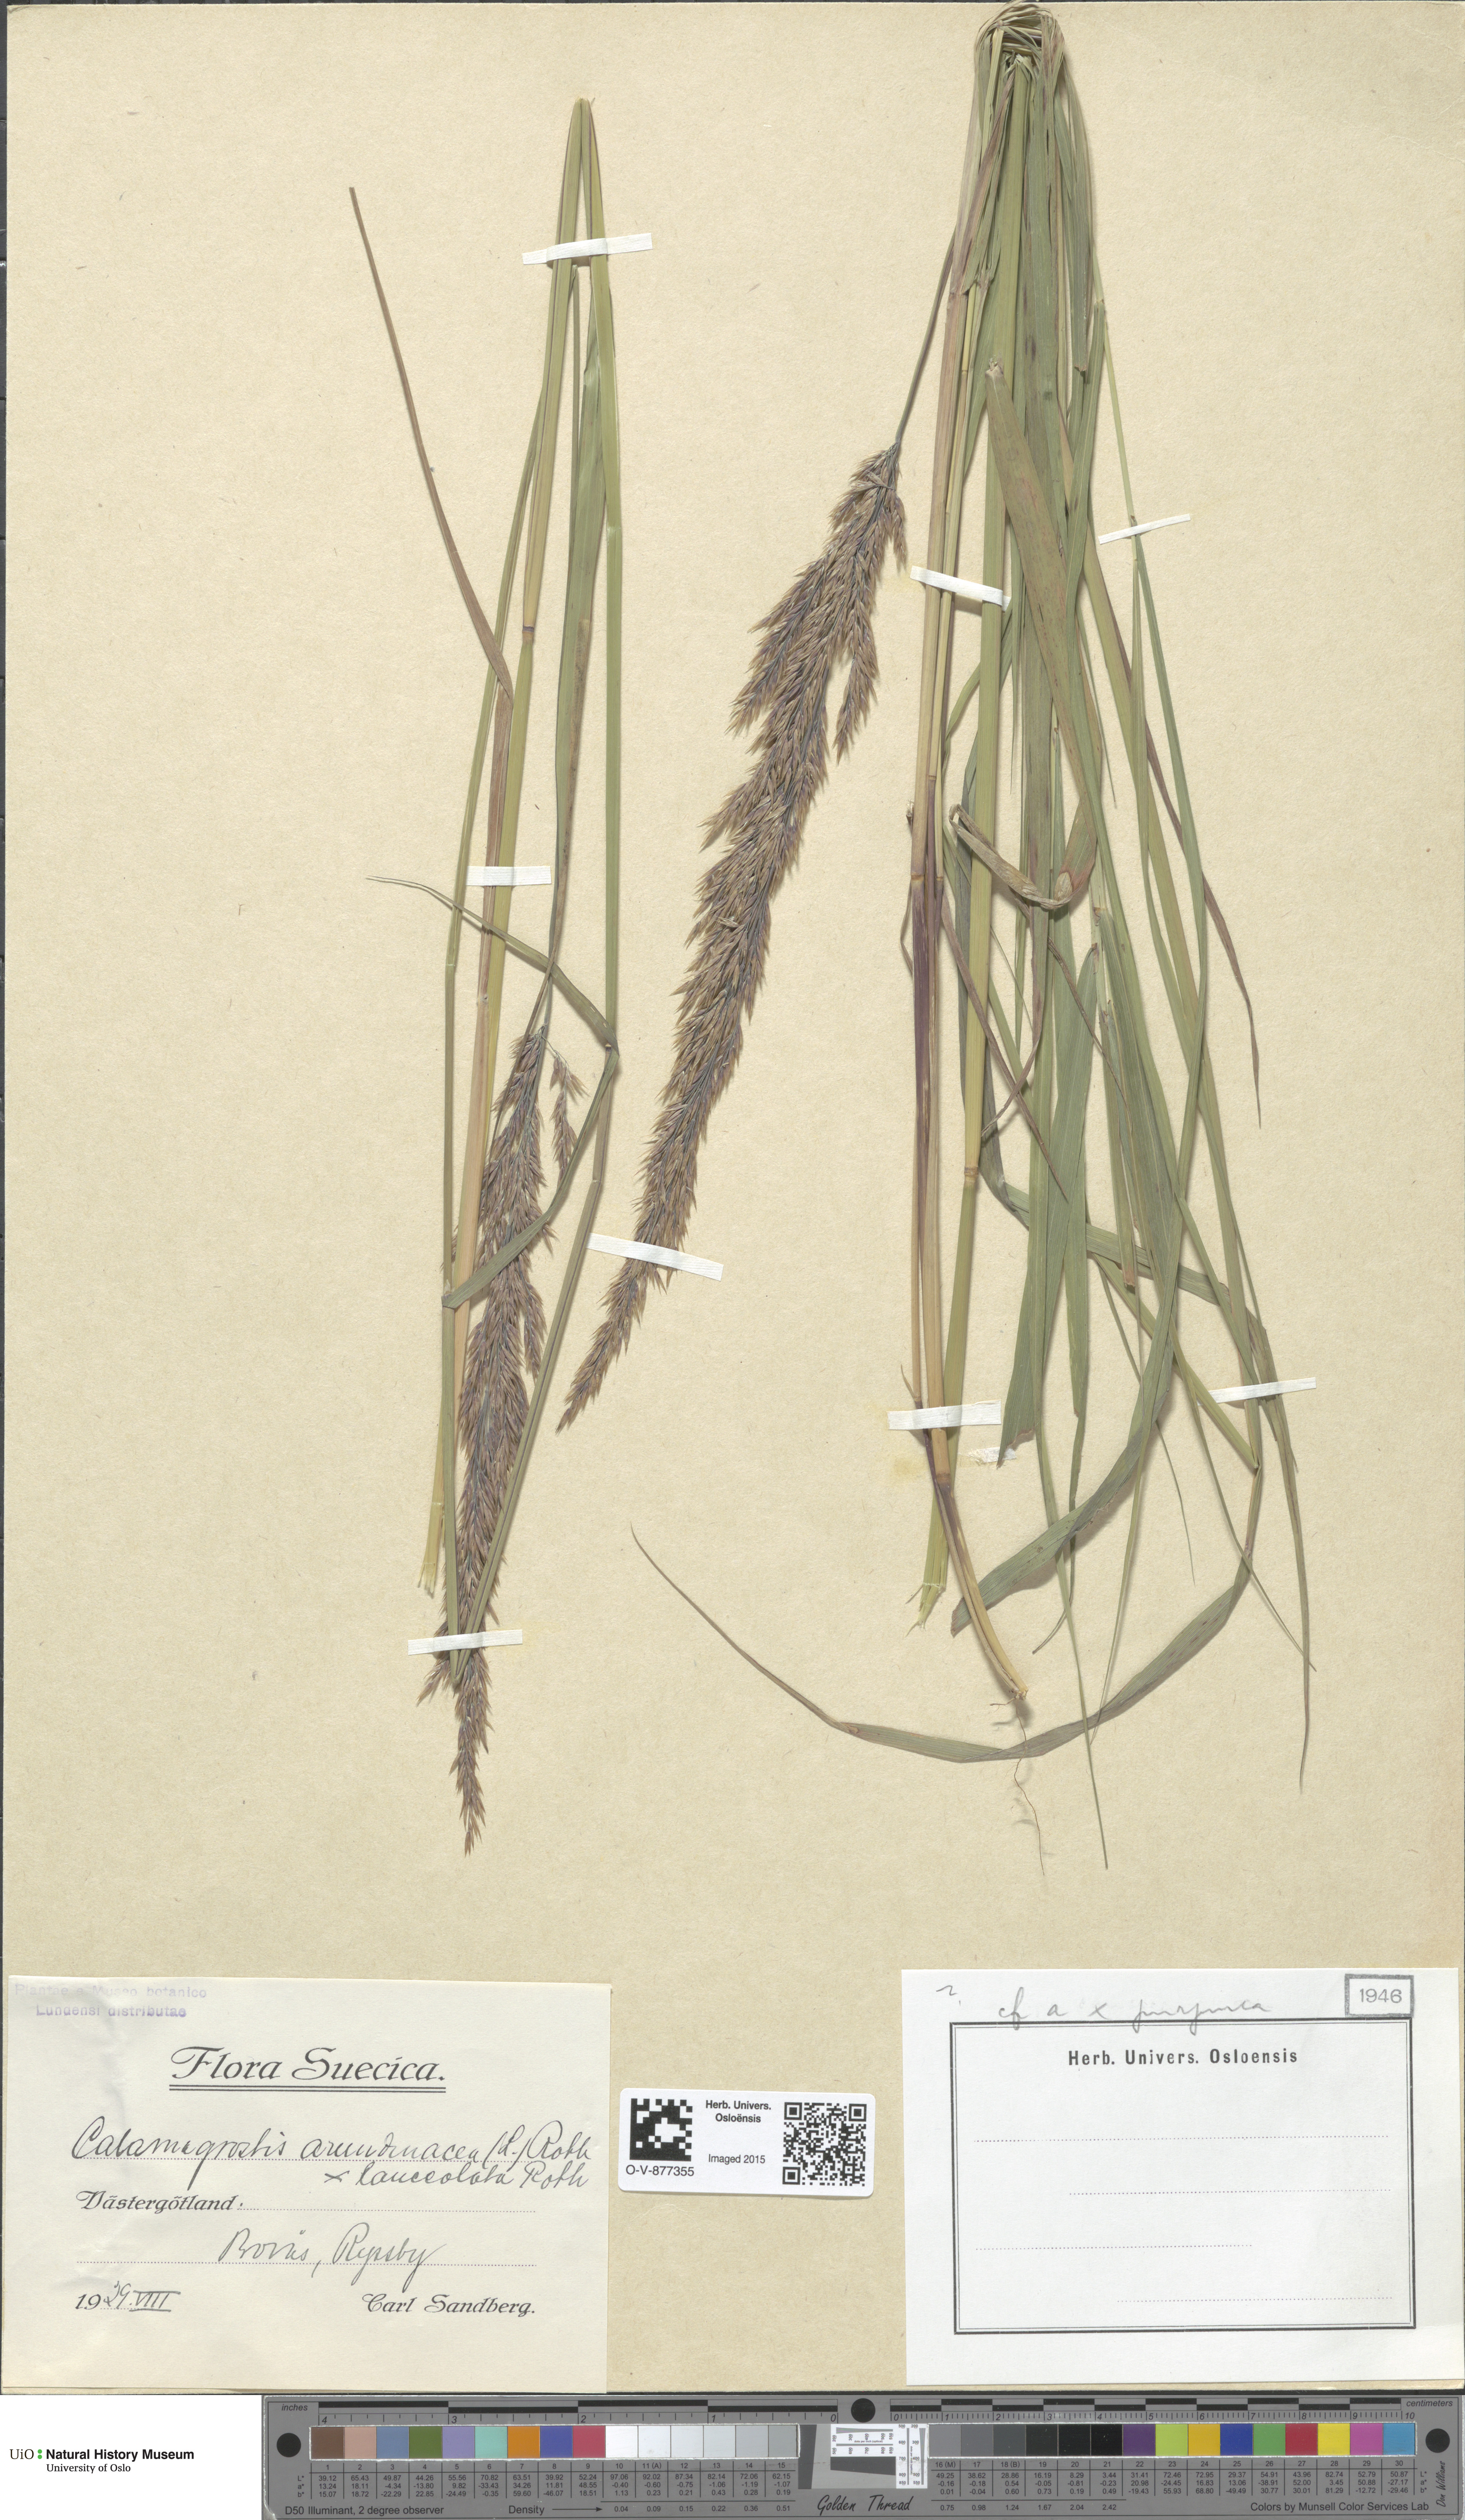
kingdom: Plantae
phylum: Tracheophyta
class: Liliopsida
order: Poales
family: Poaceae
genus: Calamagrostis
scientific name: Calamagrostis
